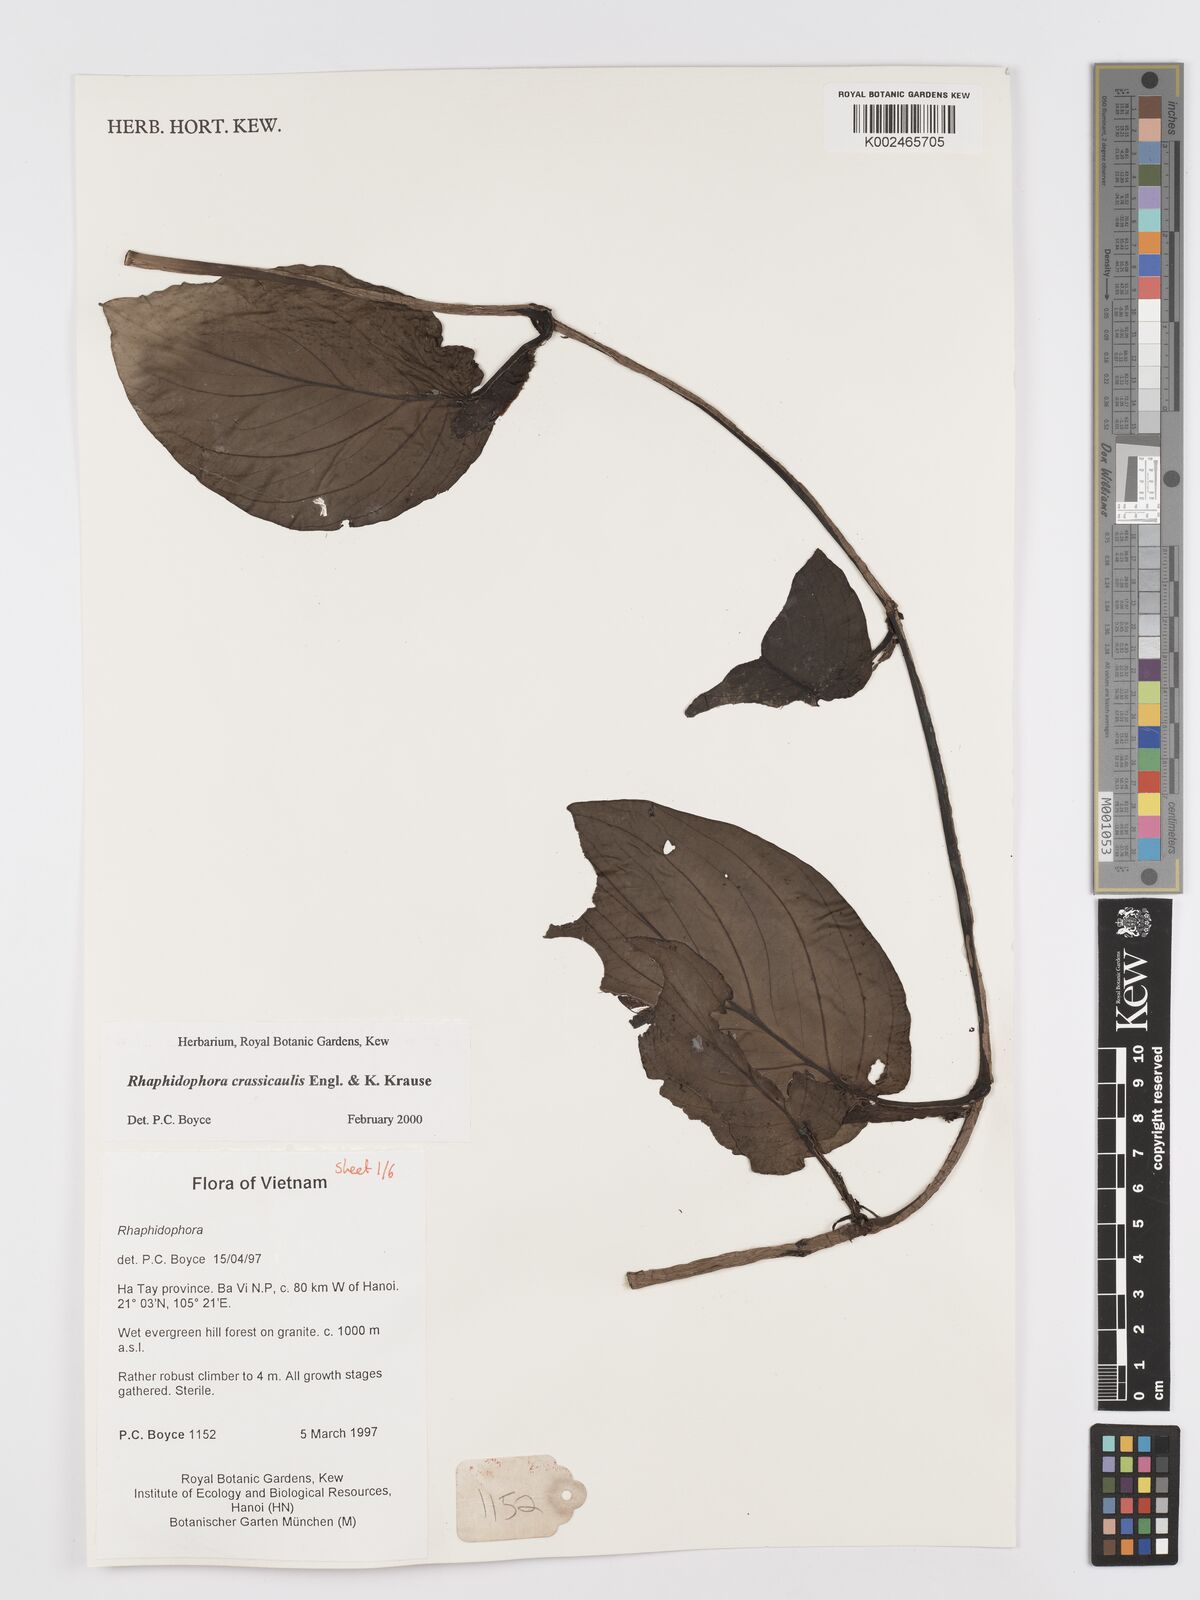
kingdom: Plantae
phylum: Tracheophyta
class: Liliopsida
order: Alismatales
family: Araceae
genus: Rhaphidophora
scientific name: Rhaphidophora crassicaulis
